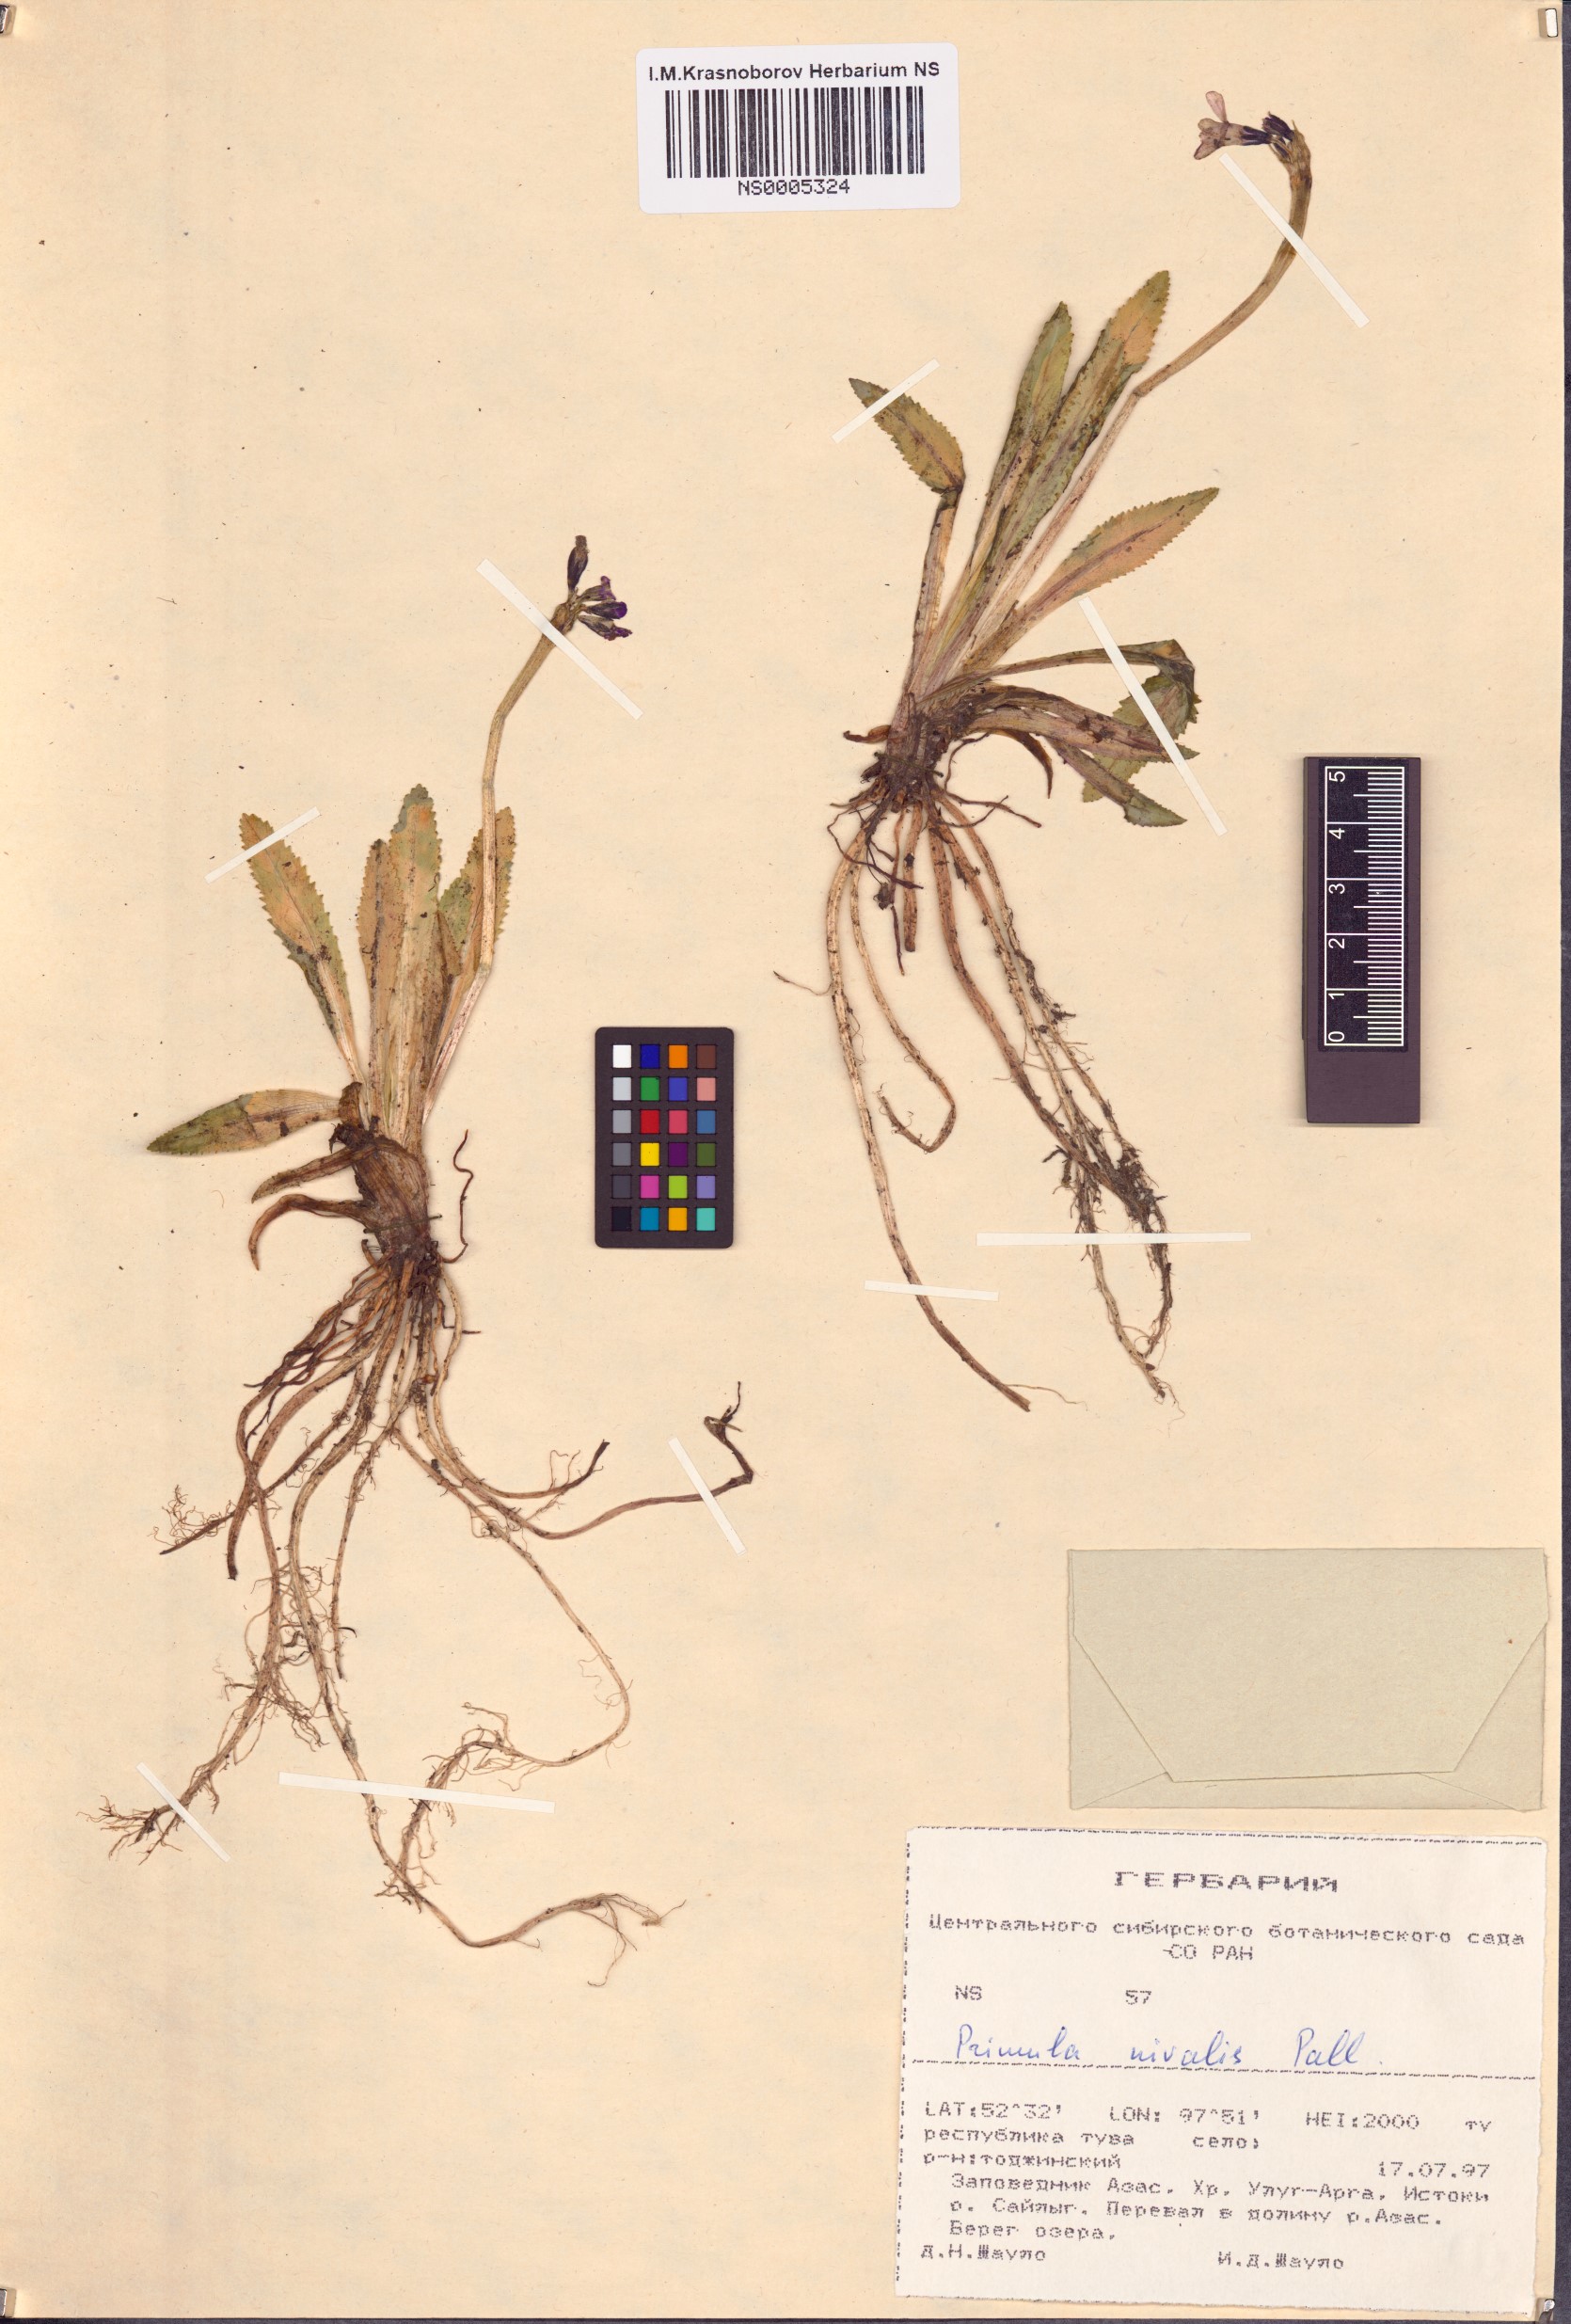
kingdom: Plantae
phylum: Tracheophyta
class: Magnoliopsida
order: Ericales
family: Primulaceae
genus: Primula
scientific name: Primula nivalis
